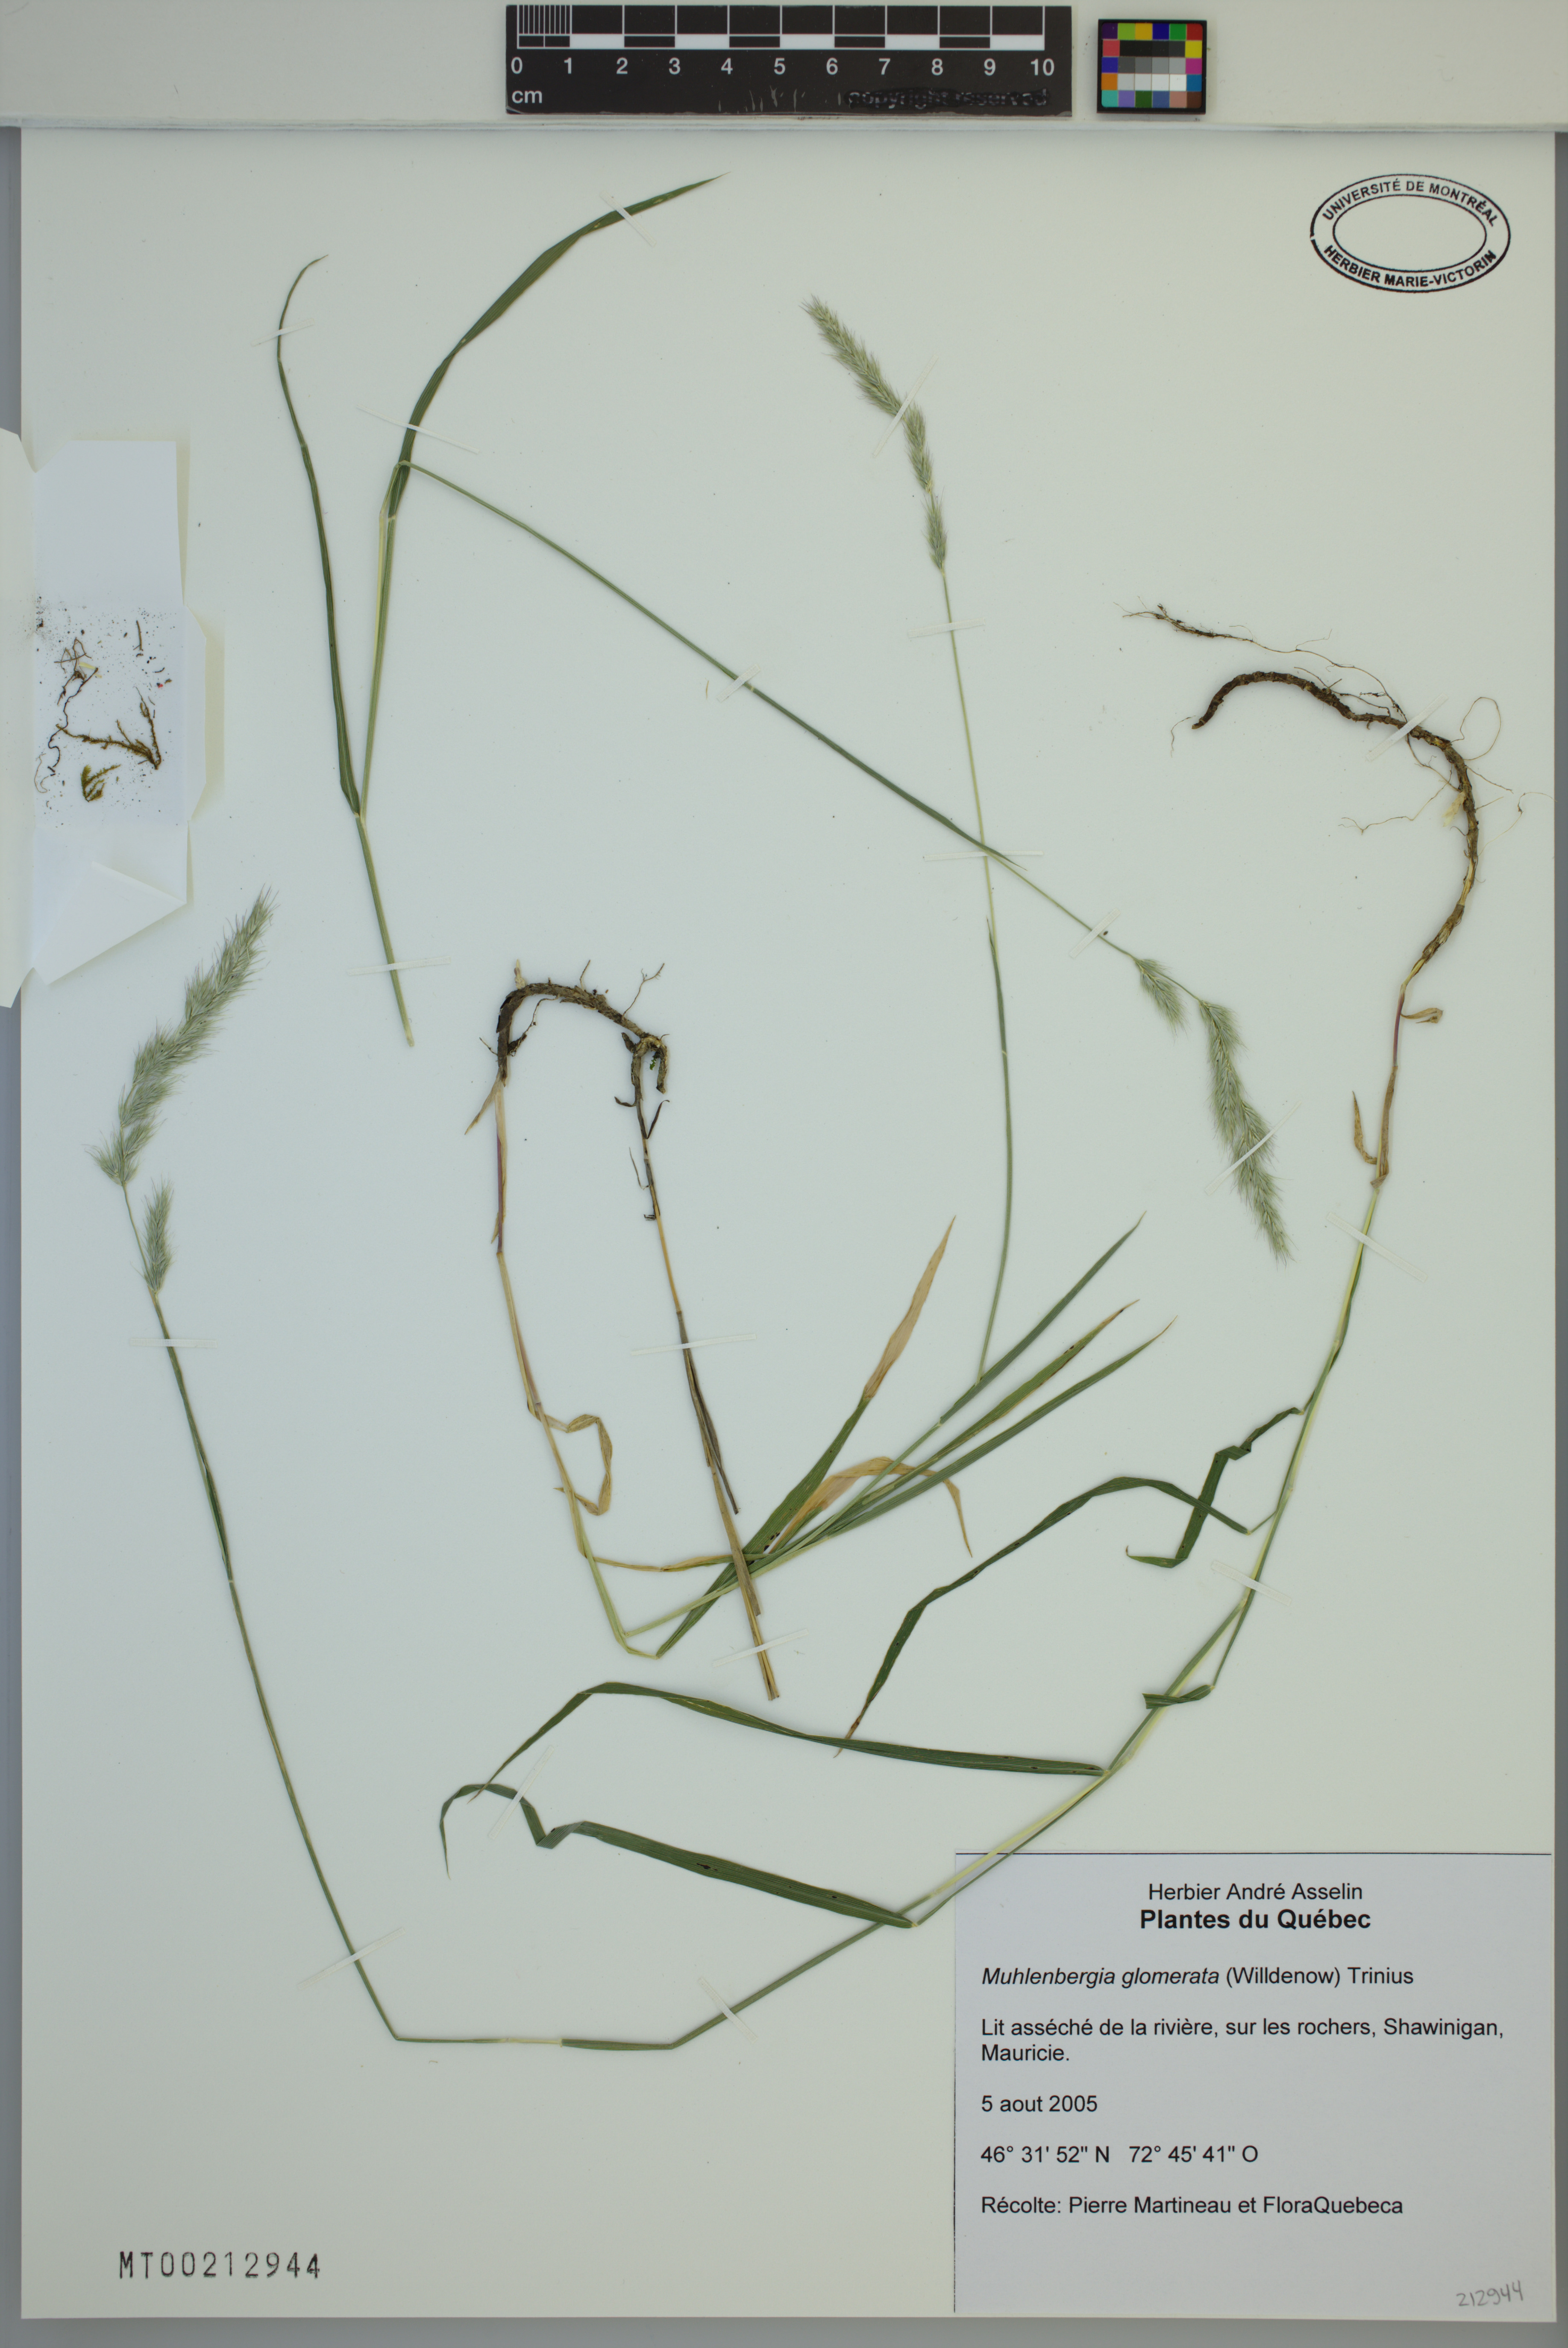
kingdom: Plantae
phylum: Tracheophyta
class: Liliopsida
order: Poales
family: Poaceae
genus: Muhlenbergia
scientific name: Muhlenbergia glomerata
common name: Bog muhly
